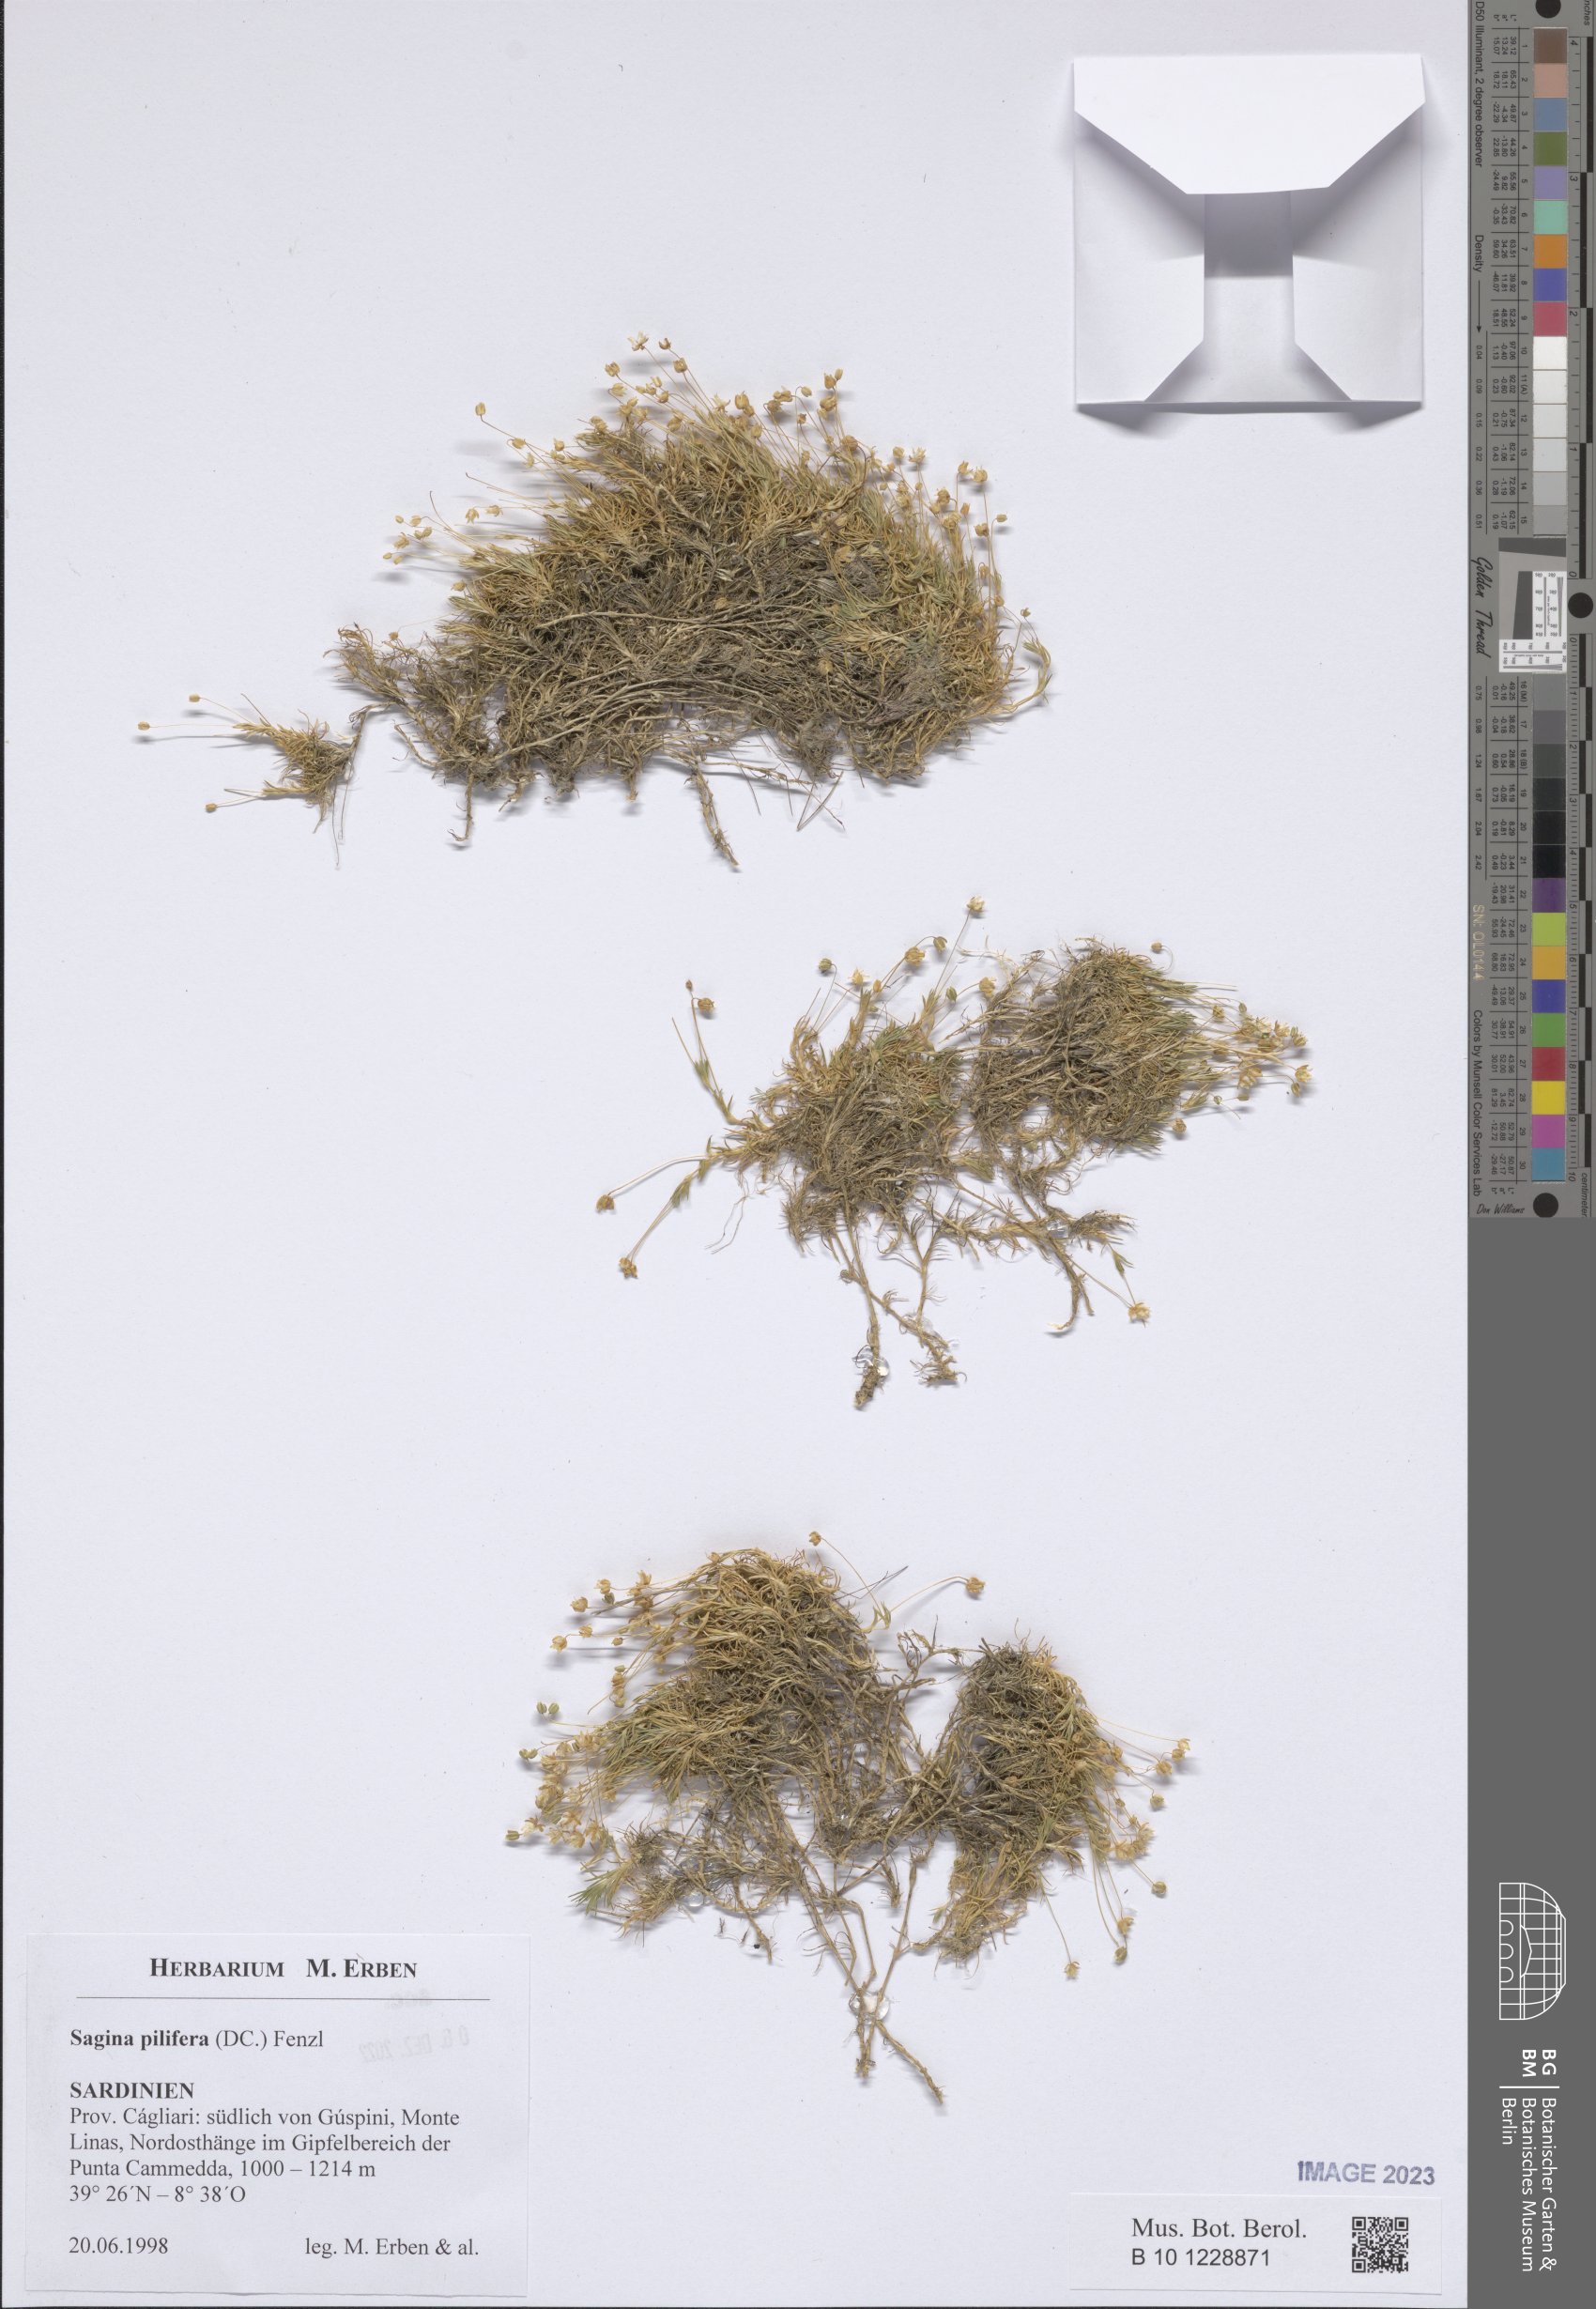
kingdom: Plantae
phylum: Tracheophyta
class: Magnoliopsida
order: Caryophyllales
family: Caryophyllaceae
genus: Sagina
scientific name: Sagina pilifera
